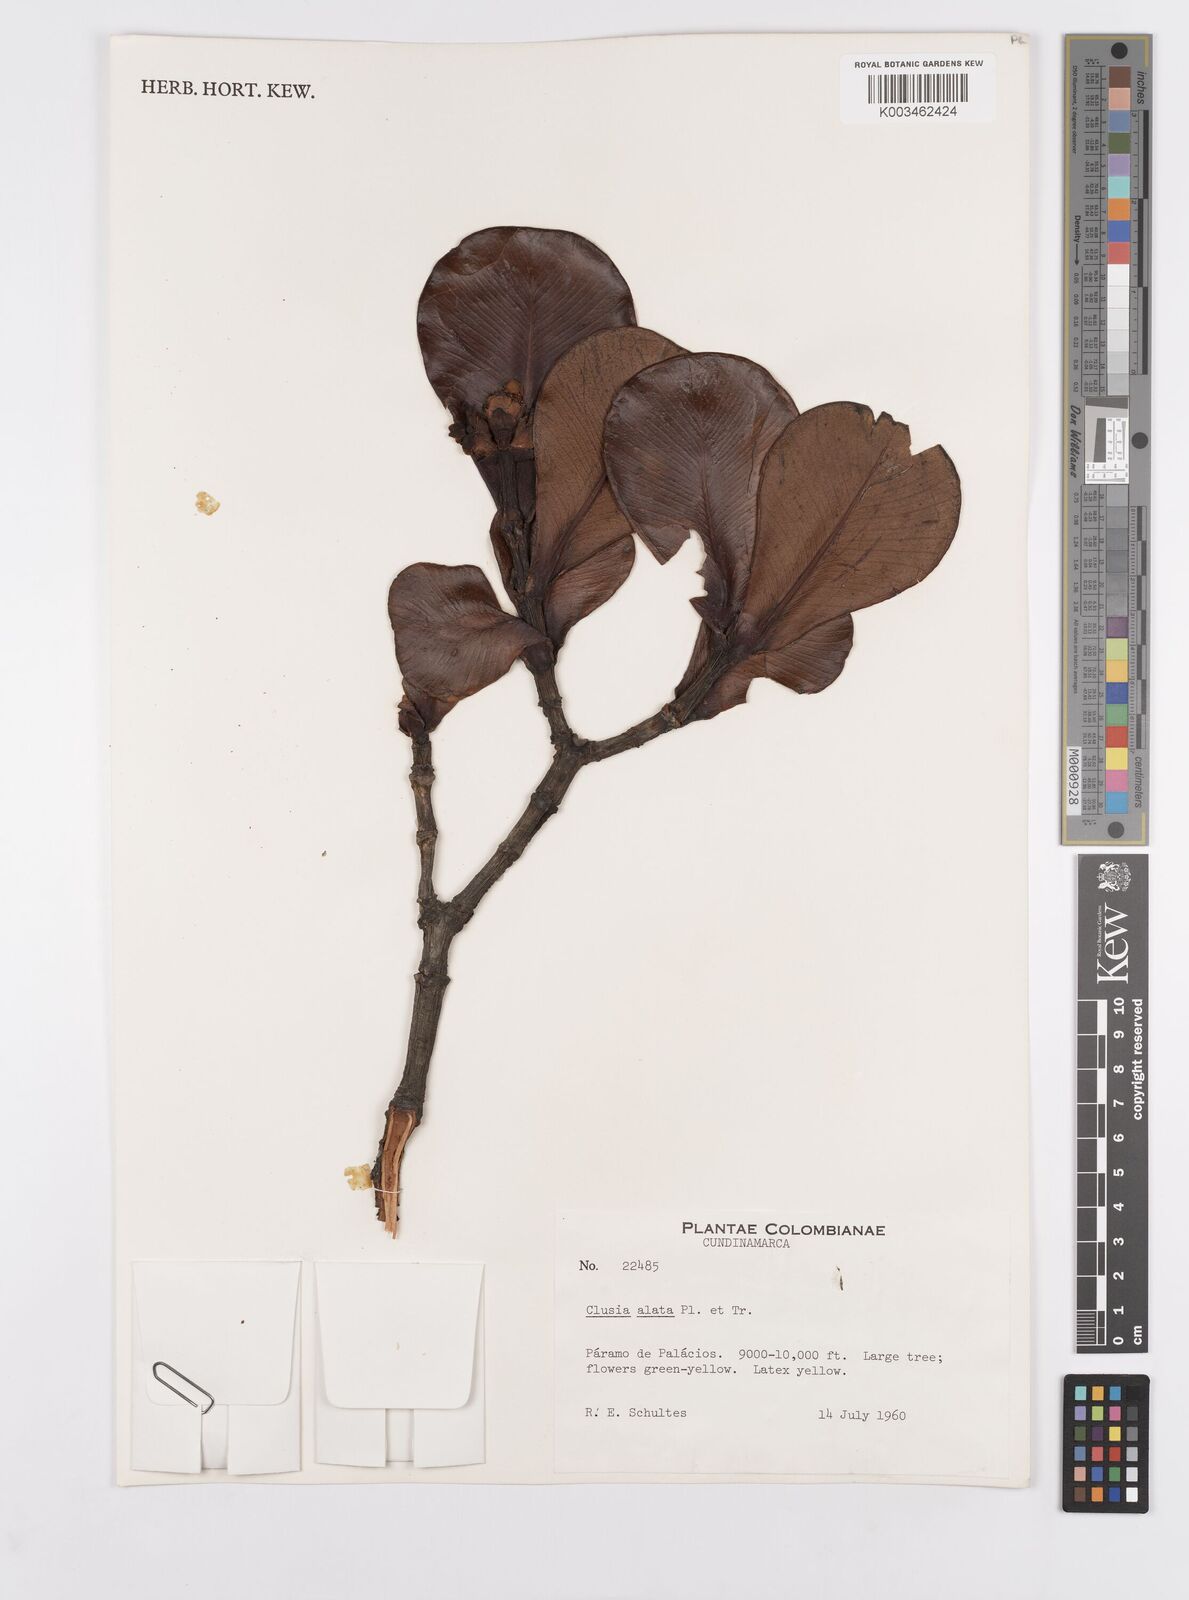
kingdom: Plantae
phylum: Tracheophyta
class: Magnoliopsida
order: Malpighiales
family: Clusiaceae
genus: Clusia
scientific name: Clusia alata
